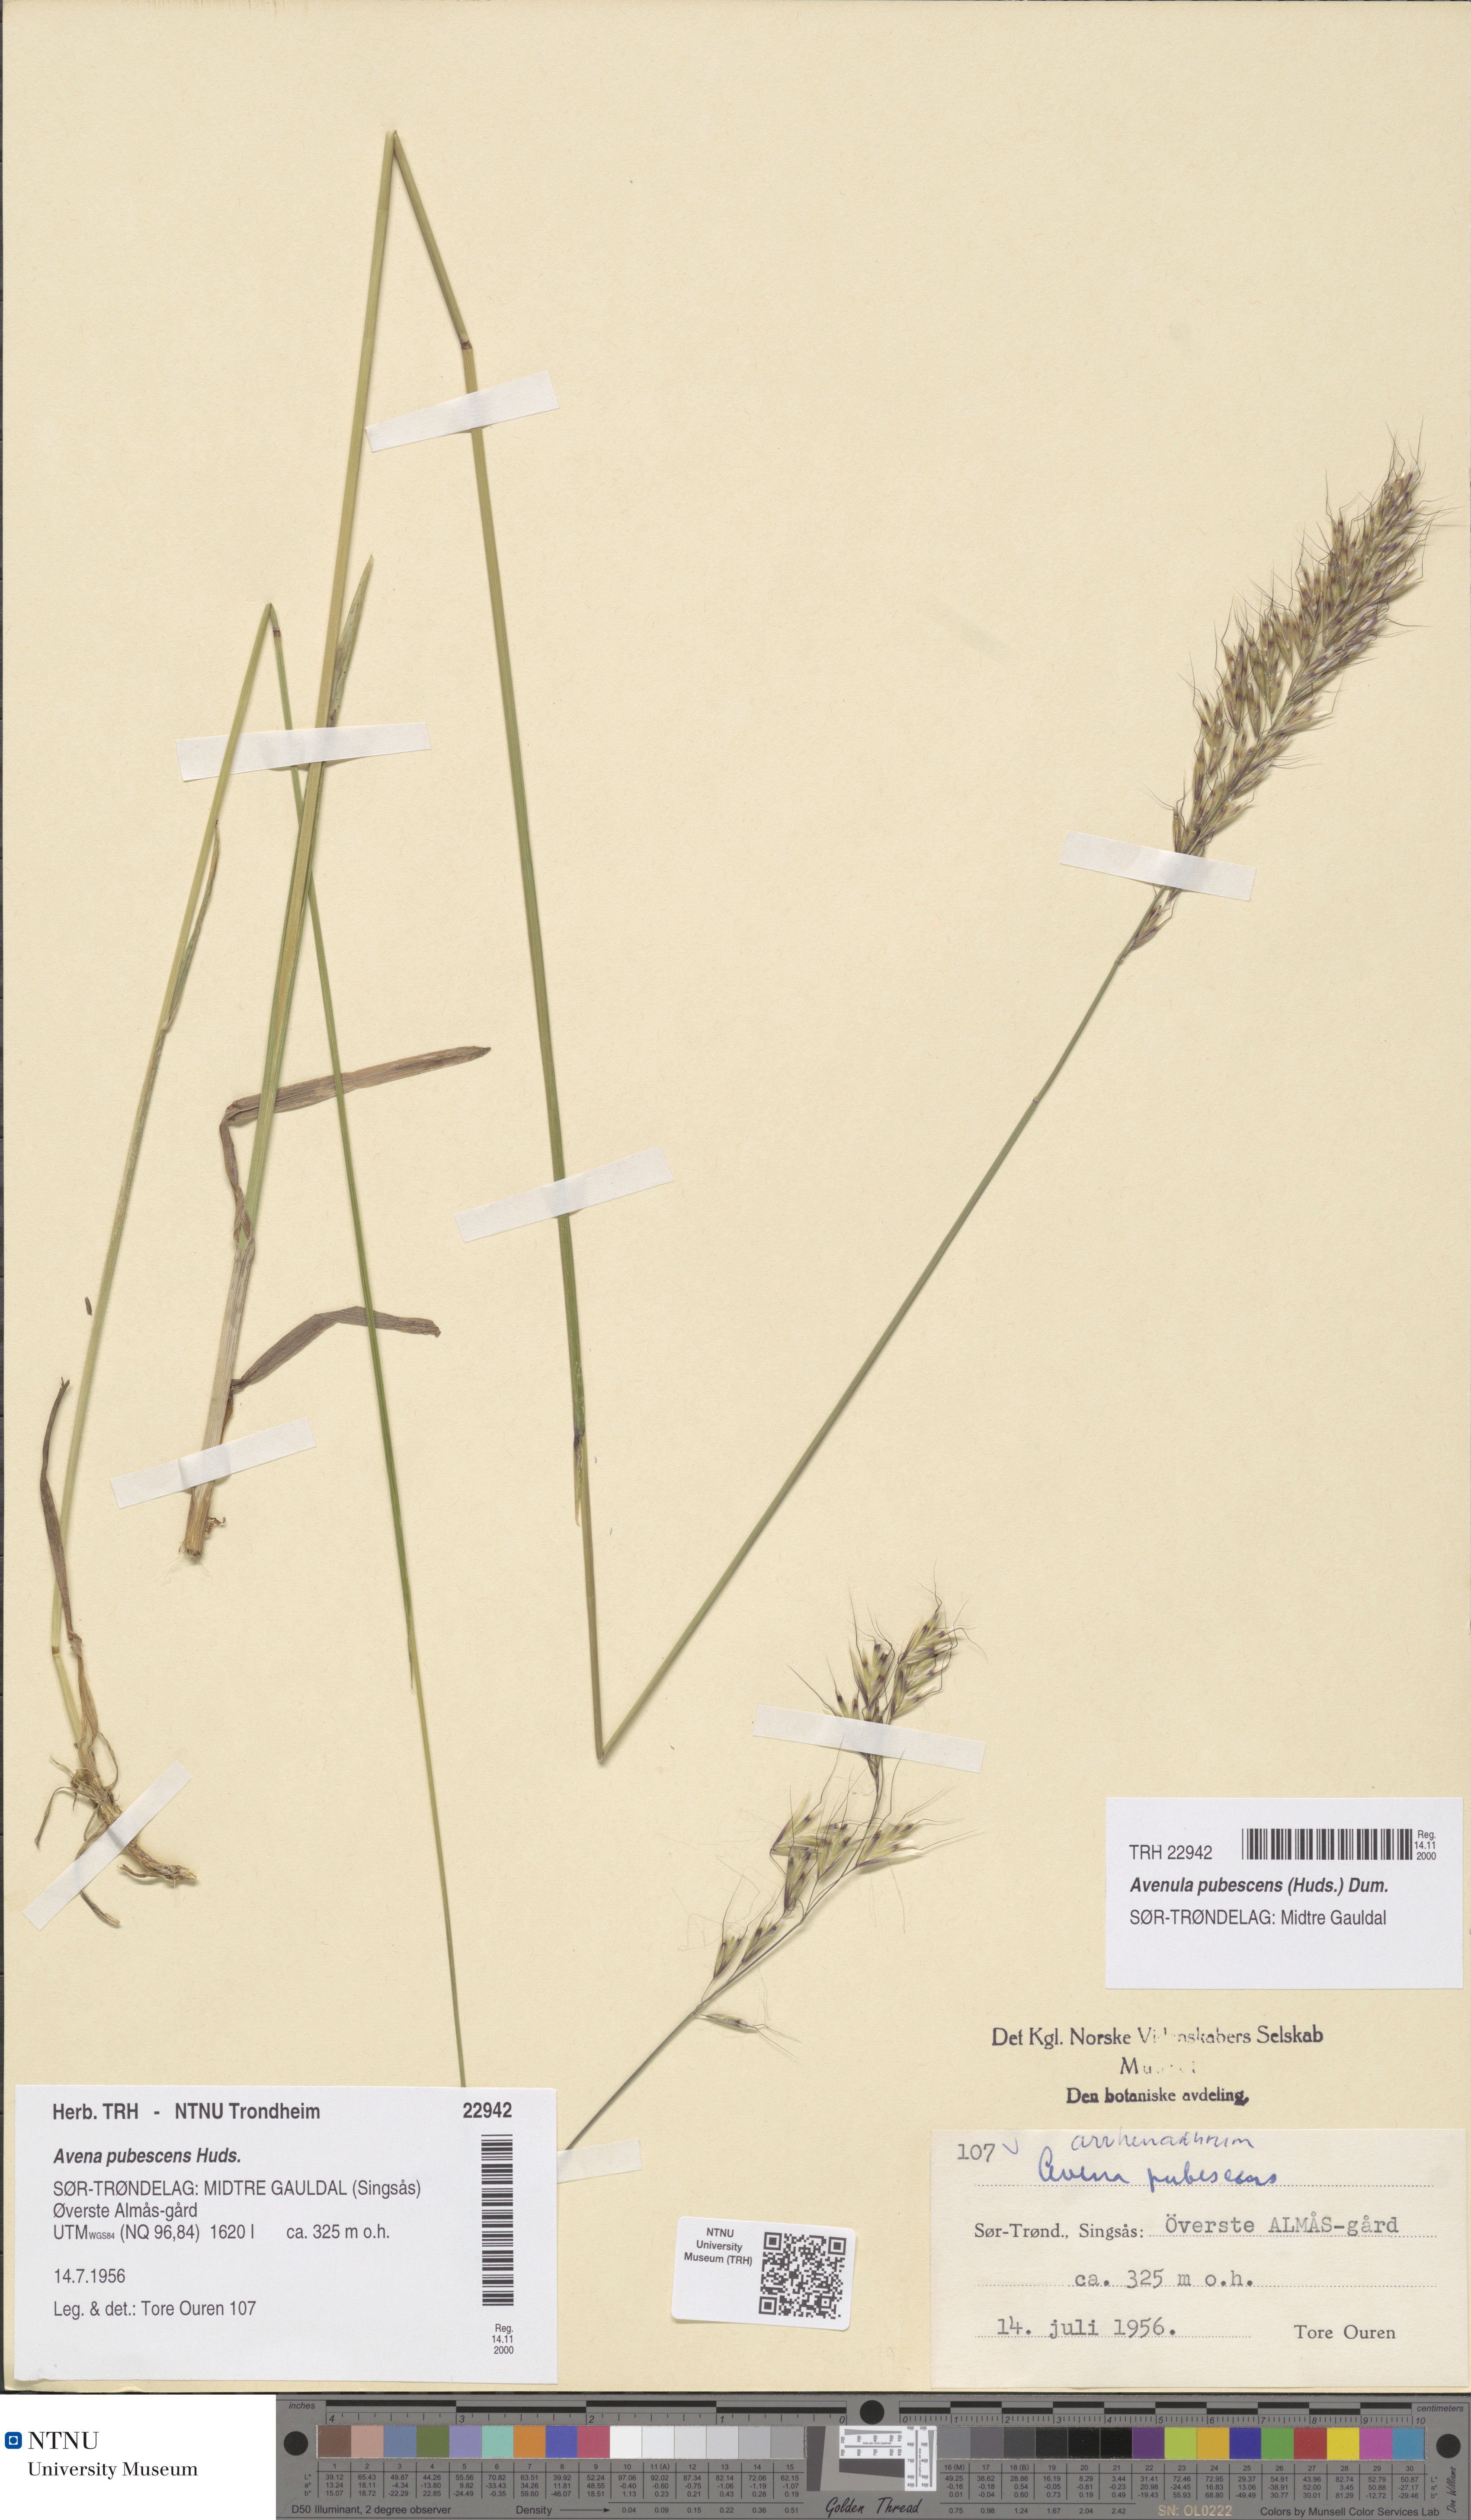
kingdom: Plantae
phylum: Tracheophyta
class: Liliopsida
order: Poales
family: Poaceae
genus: Avenula
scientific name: Avenula pubescens
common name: Downy alpine oatgrass
